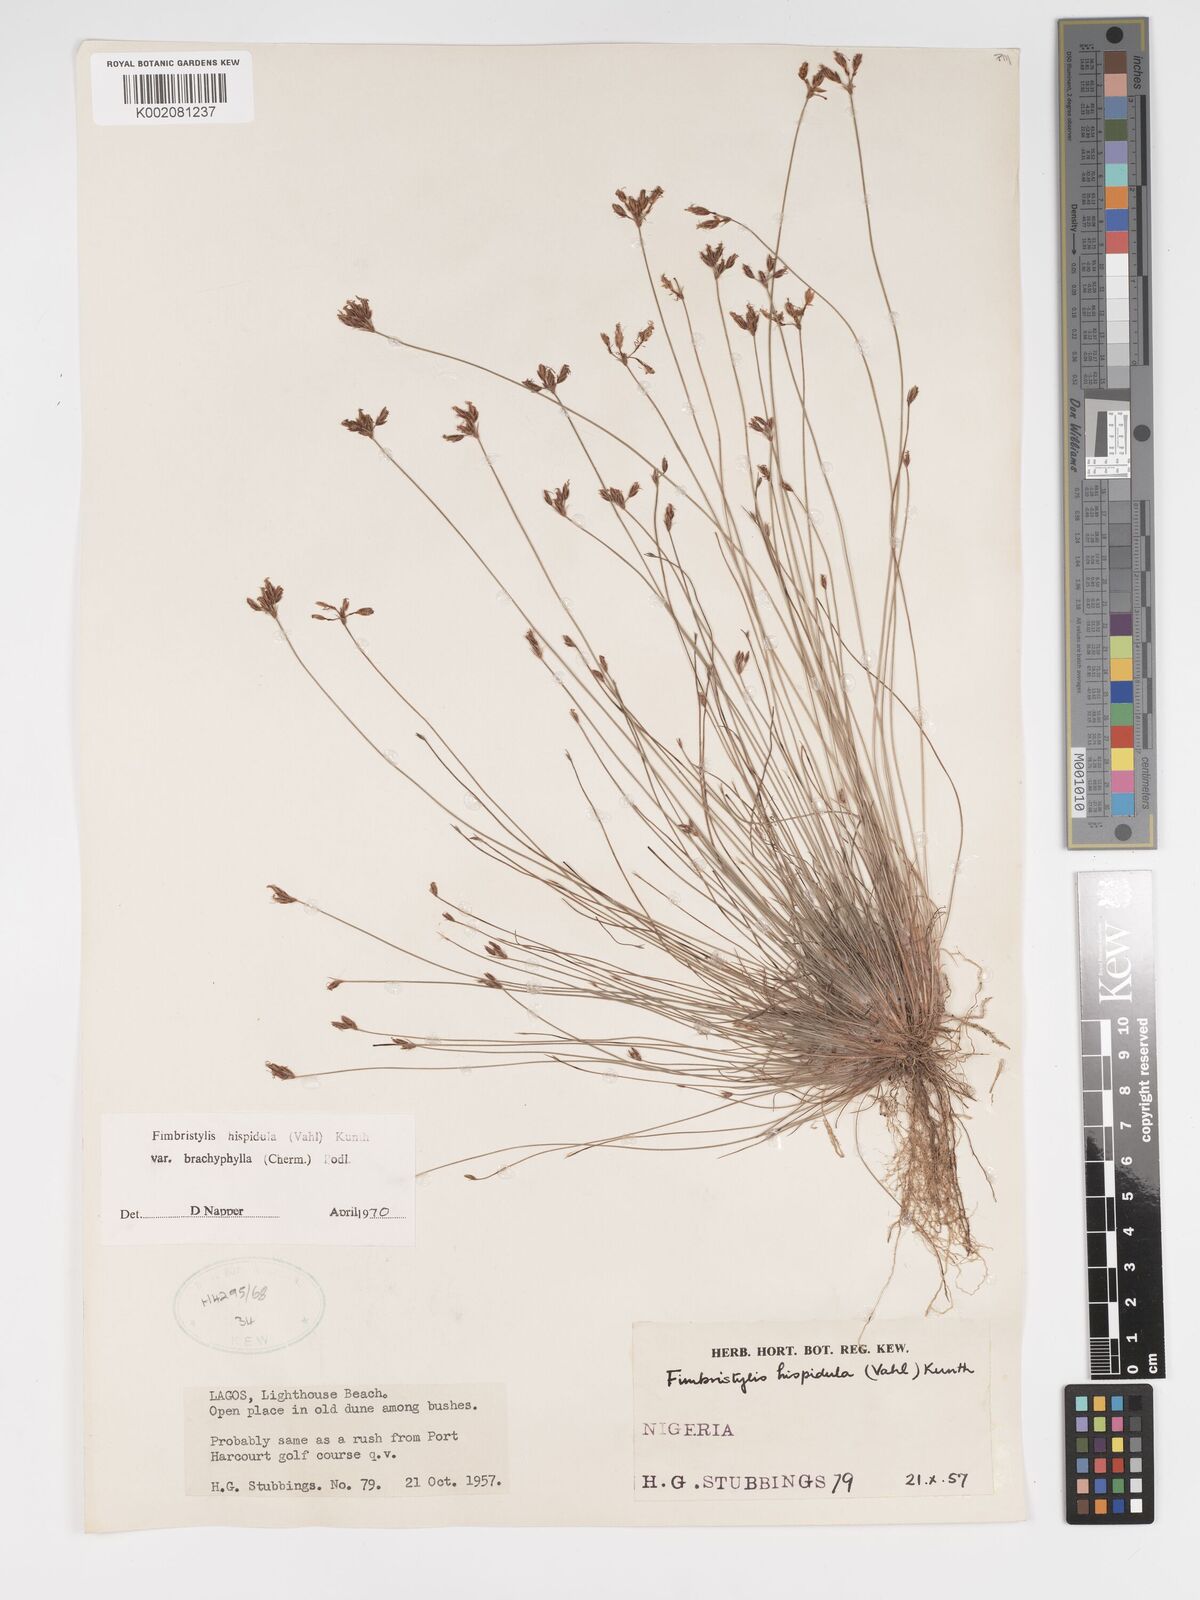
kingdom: Plantae
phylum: Tracheophyta
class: Liliopsida
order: Poales
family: Cyperaceae
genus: Bulbostylis
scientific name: Bulbostylis hispidula
